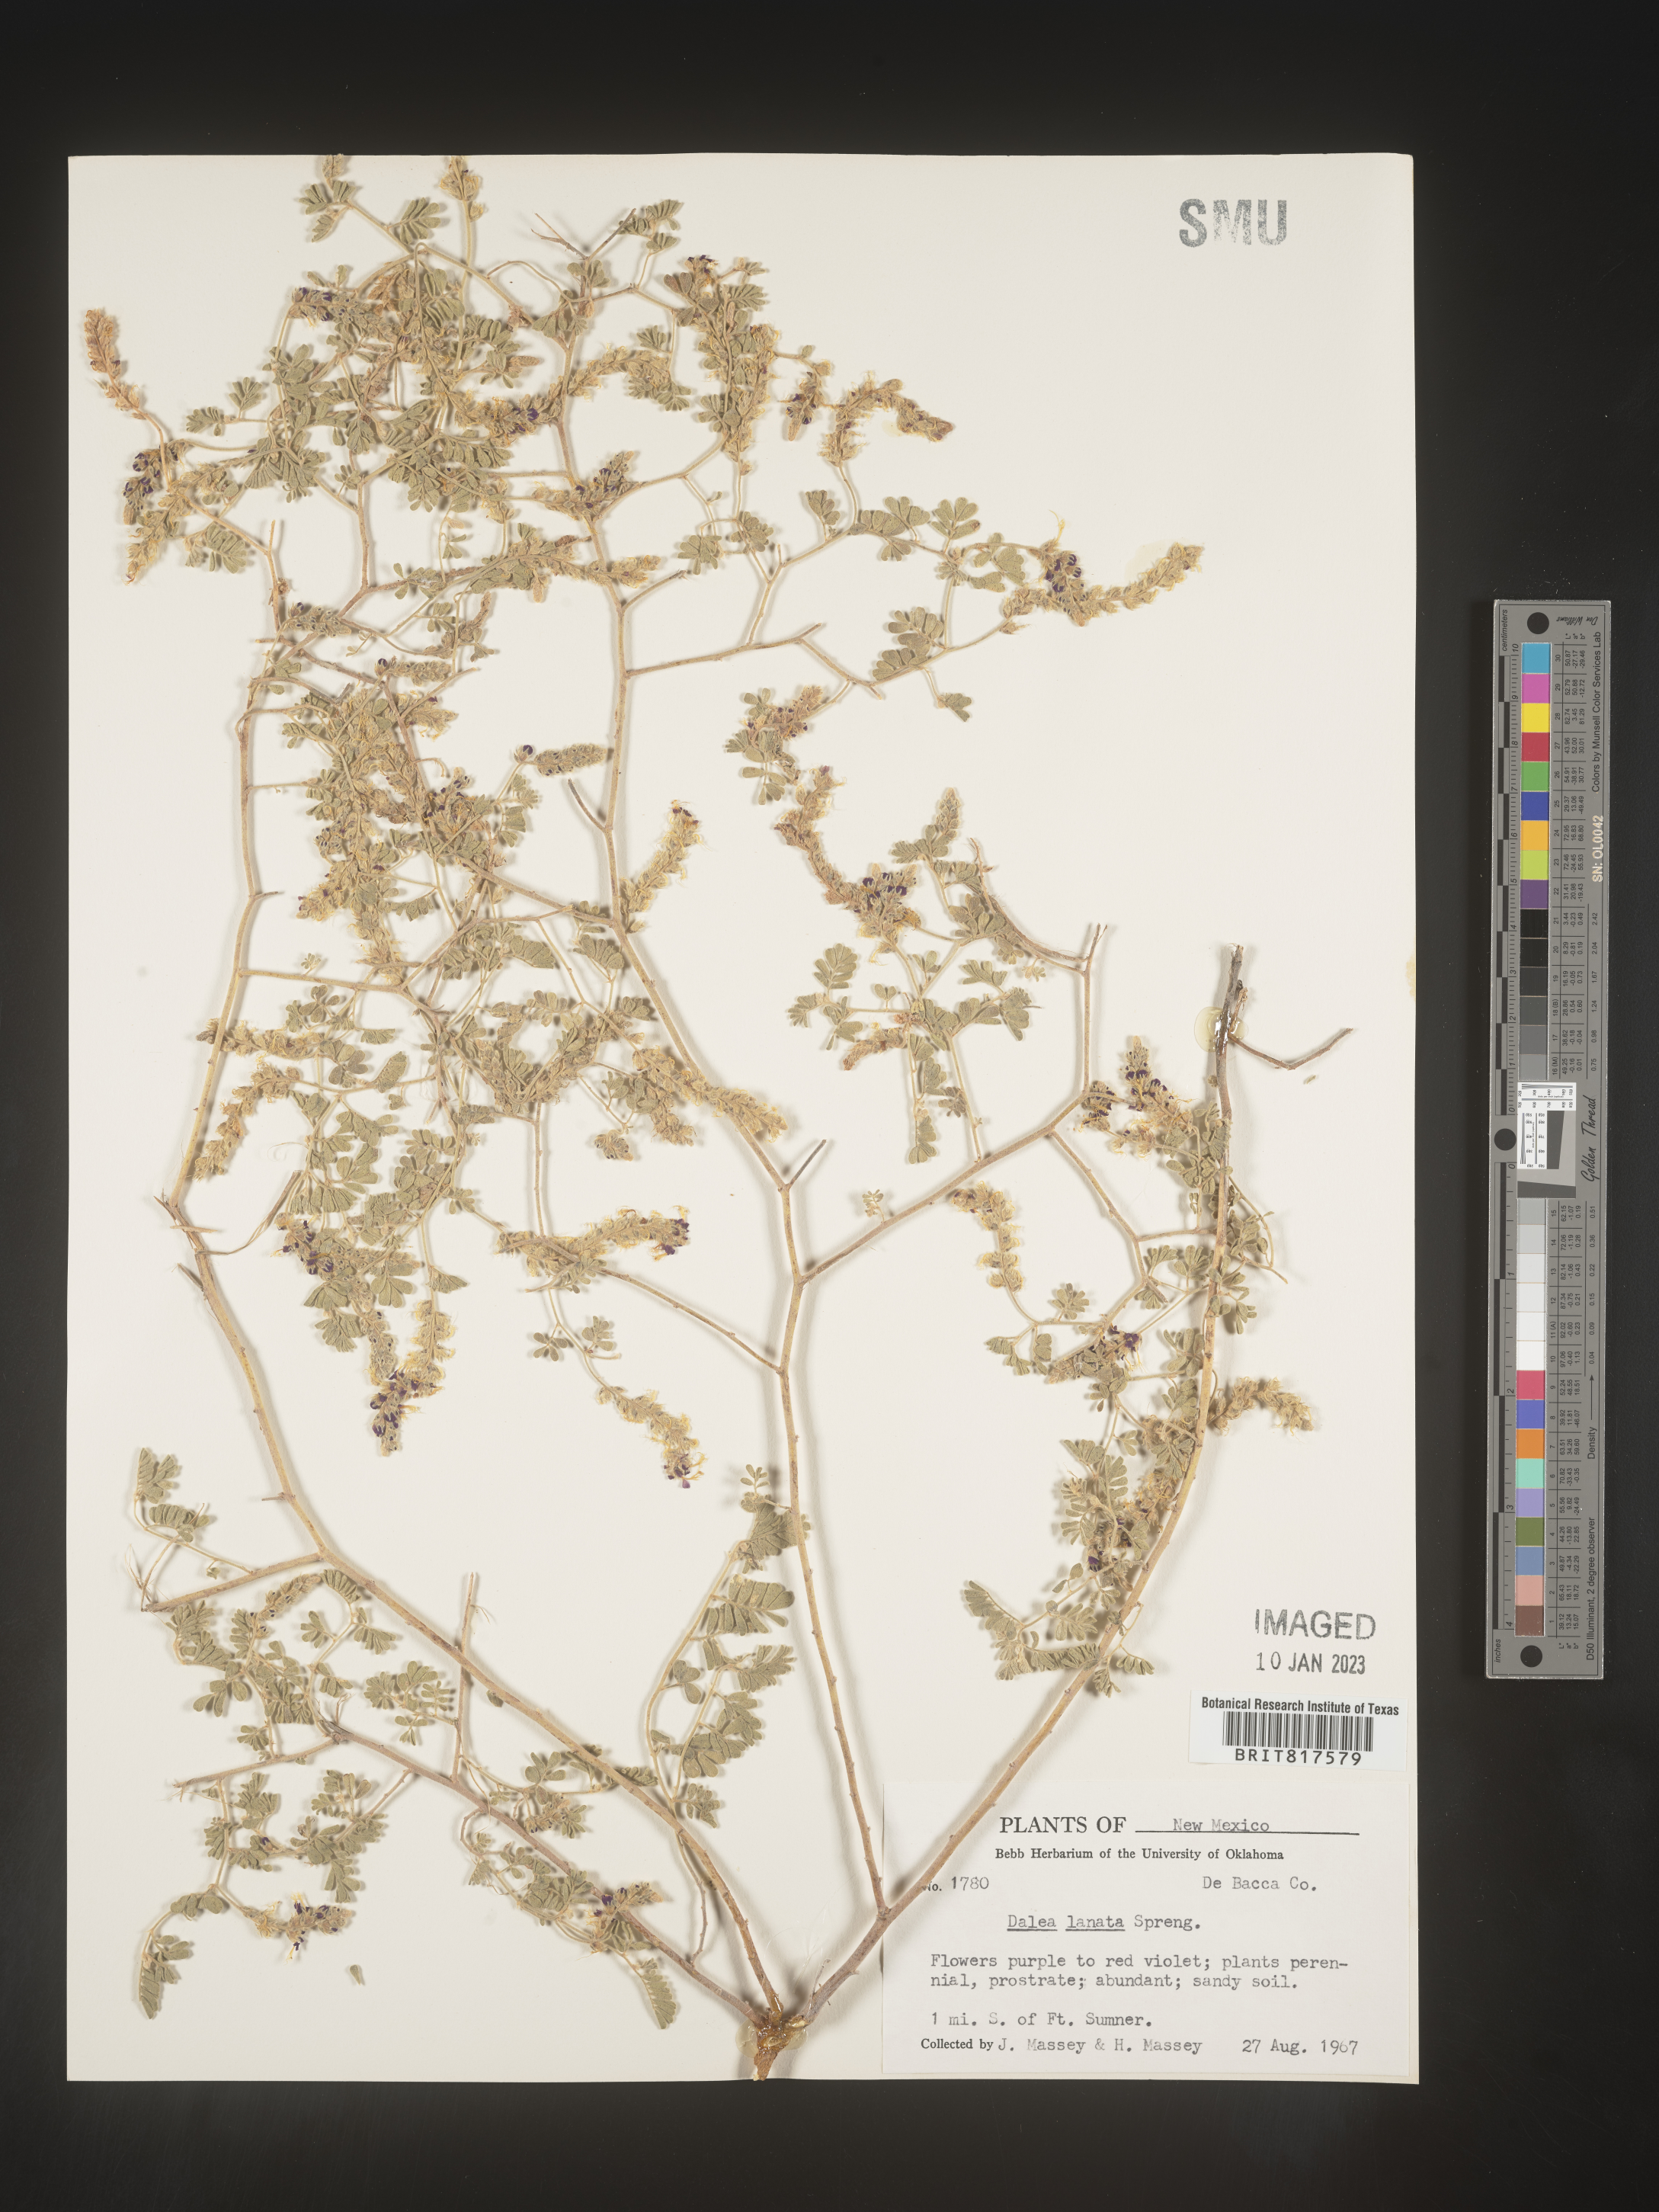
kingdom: Plantae
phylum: Tracheophyta
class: Magnoliopsida
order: Fabales
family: Fabaceae
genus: Dalea
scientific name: Dalea lanata
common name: Woolly dalea
